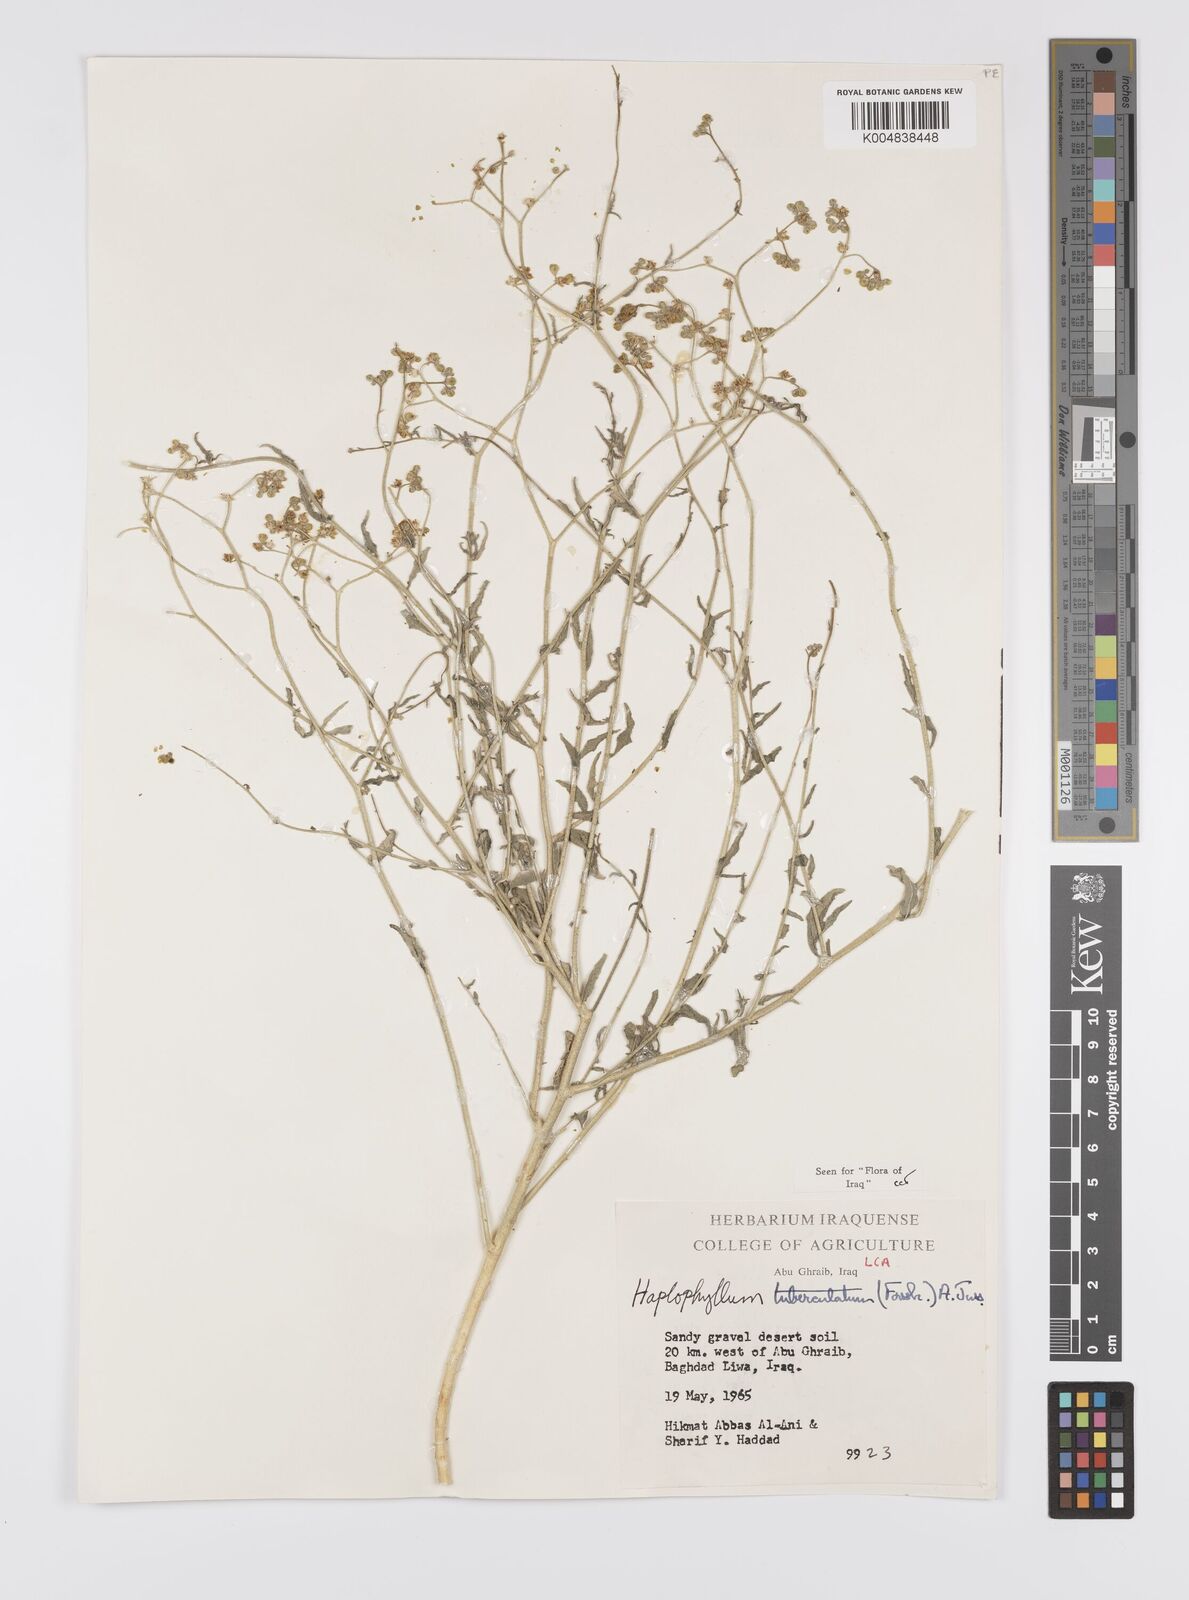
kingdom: Plantae
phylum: Tracheophyta
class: Magnoliopsida
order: Sapindales
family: Rutaceae
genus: Haplophyllum
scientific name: Haplophyllum tuberculatum
